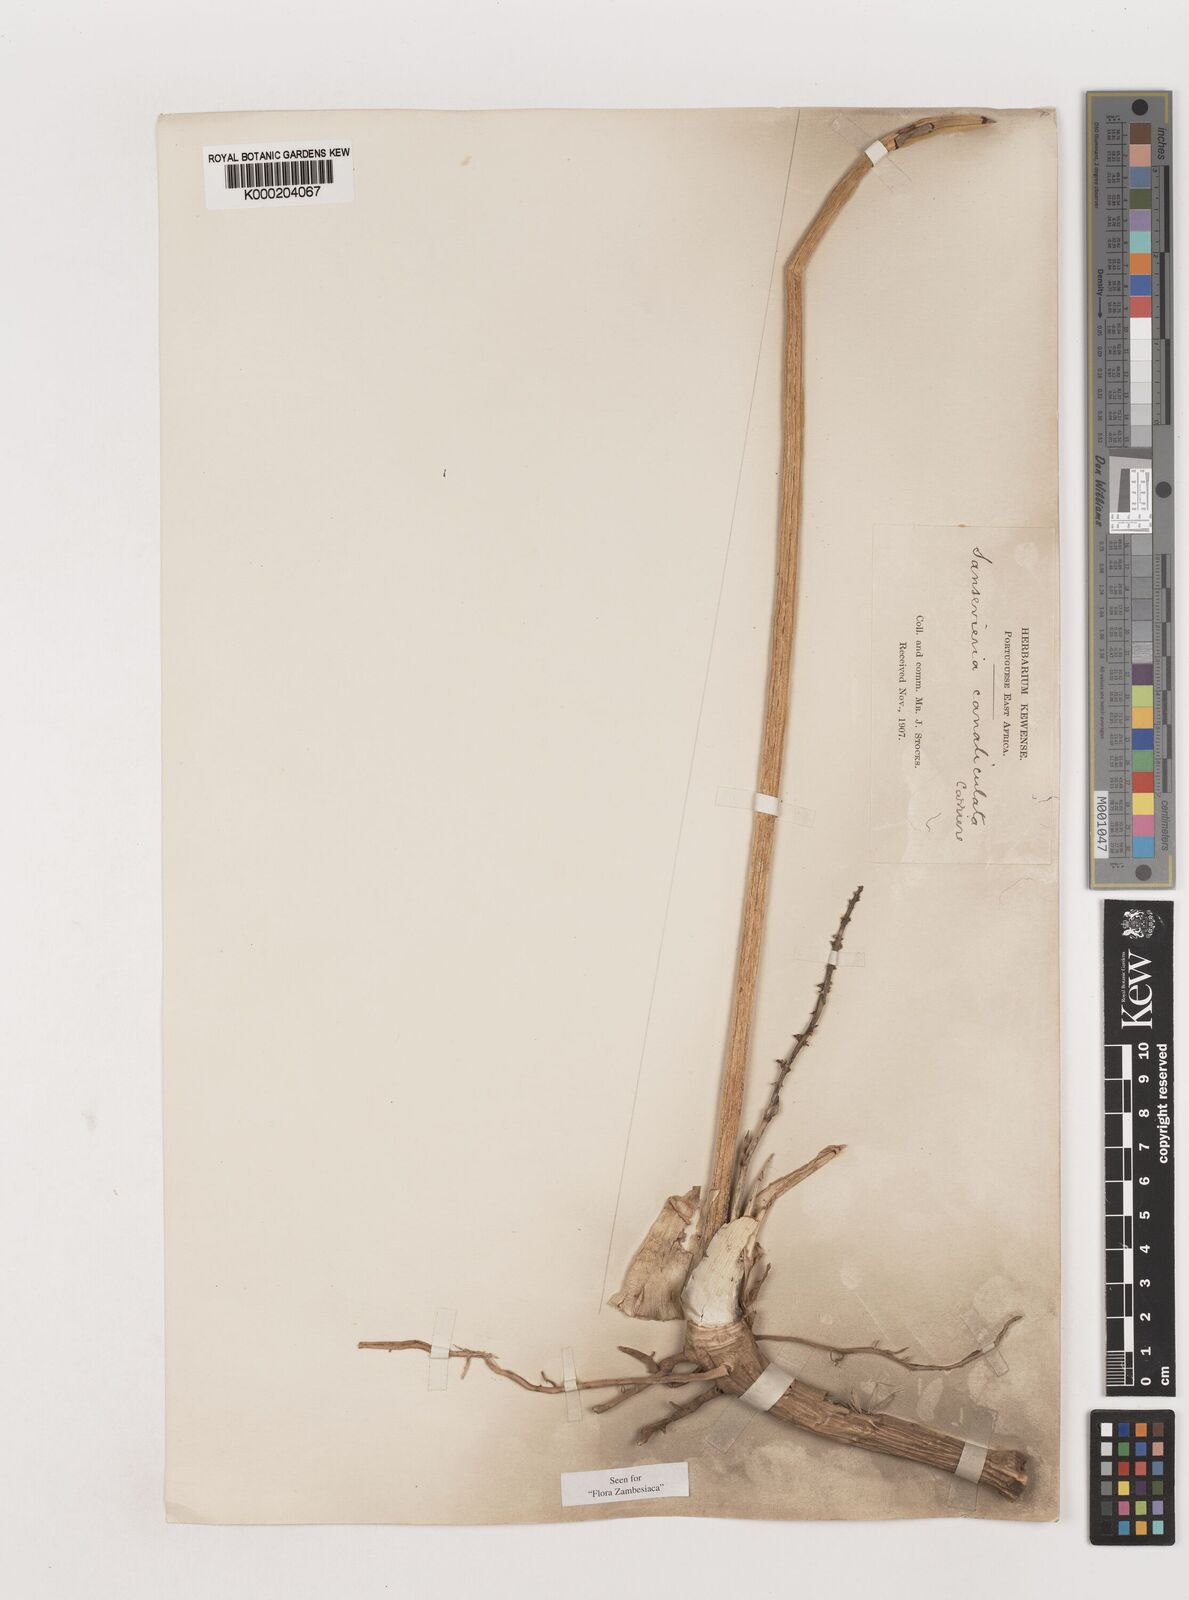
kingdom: Plantae
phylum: Tracheophyta
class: Liliopsida
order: Asparagales
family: Asparagaceae
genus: Dracaena
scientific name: Dracaena
